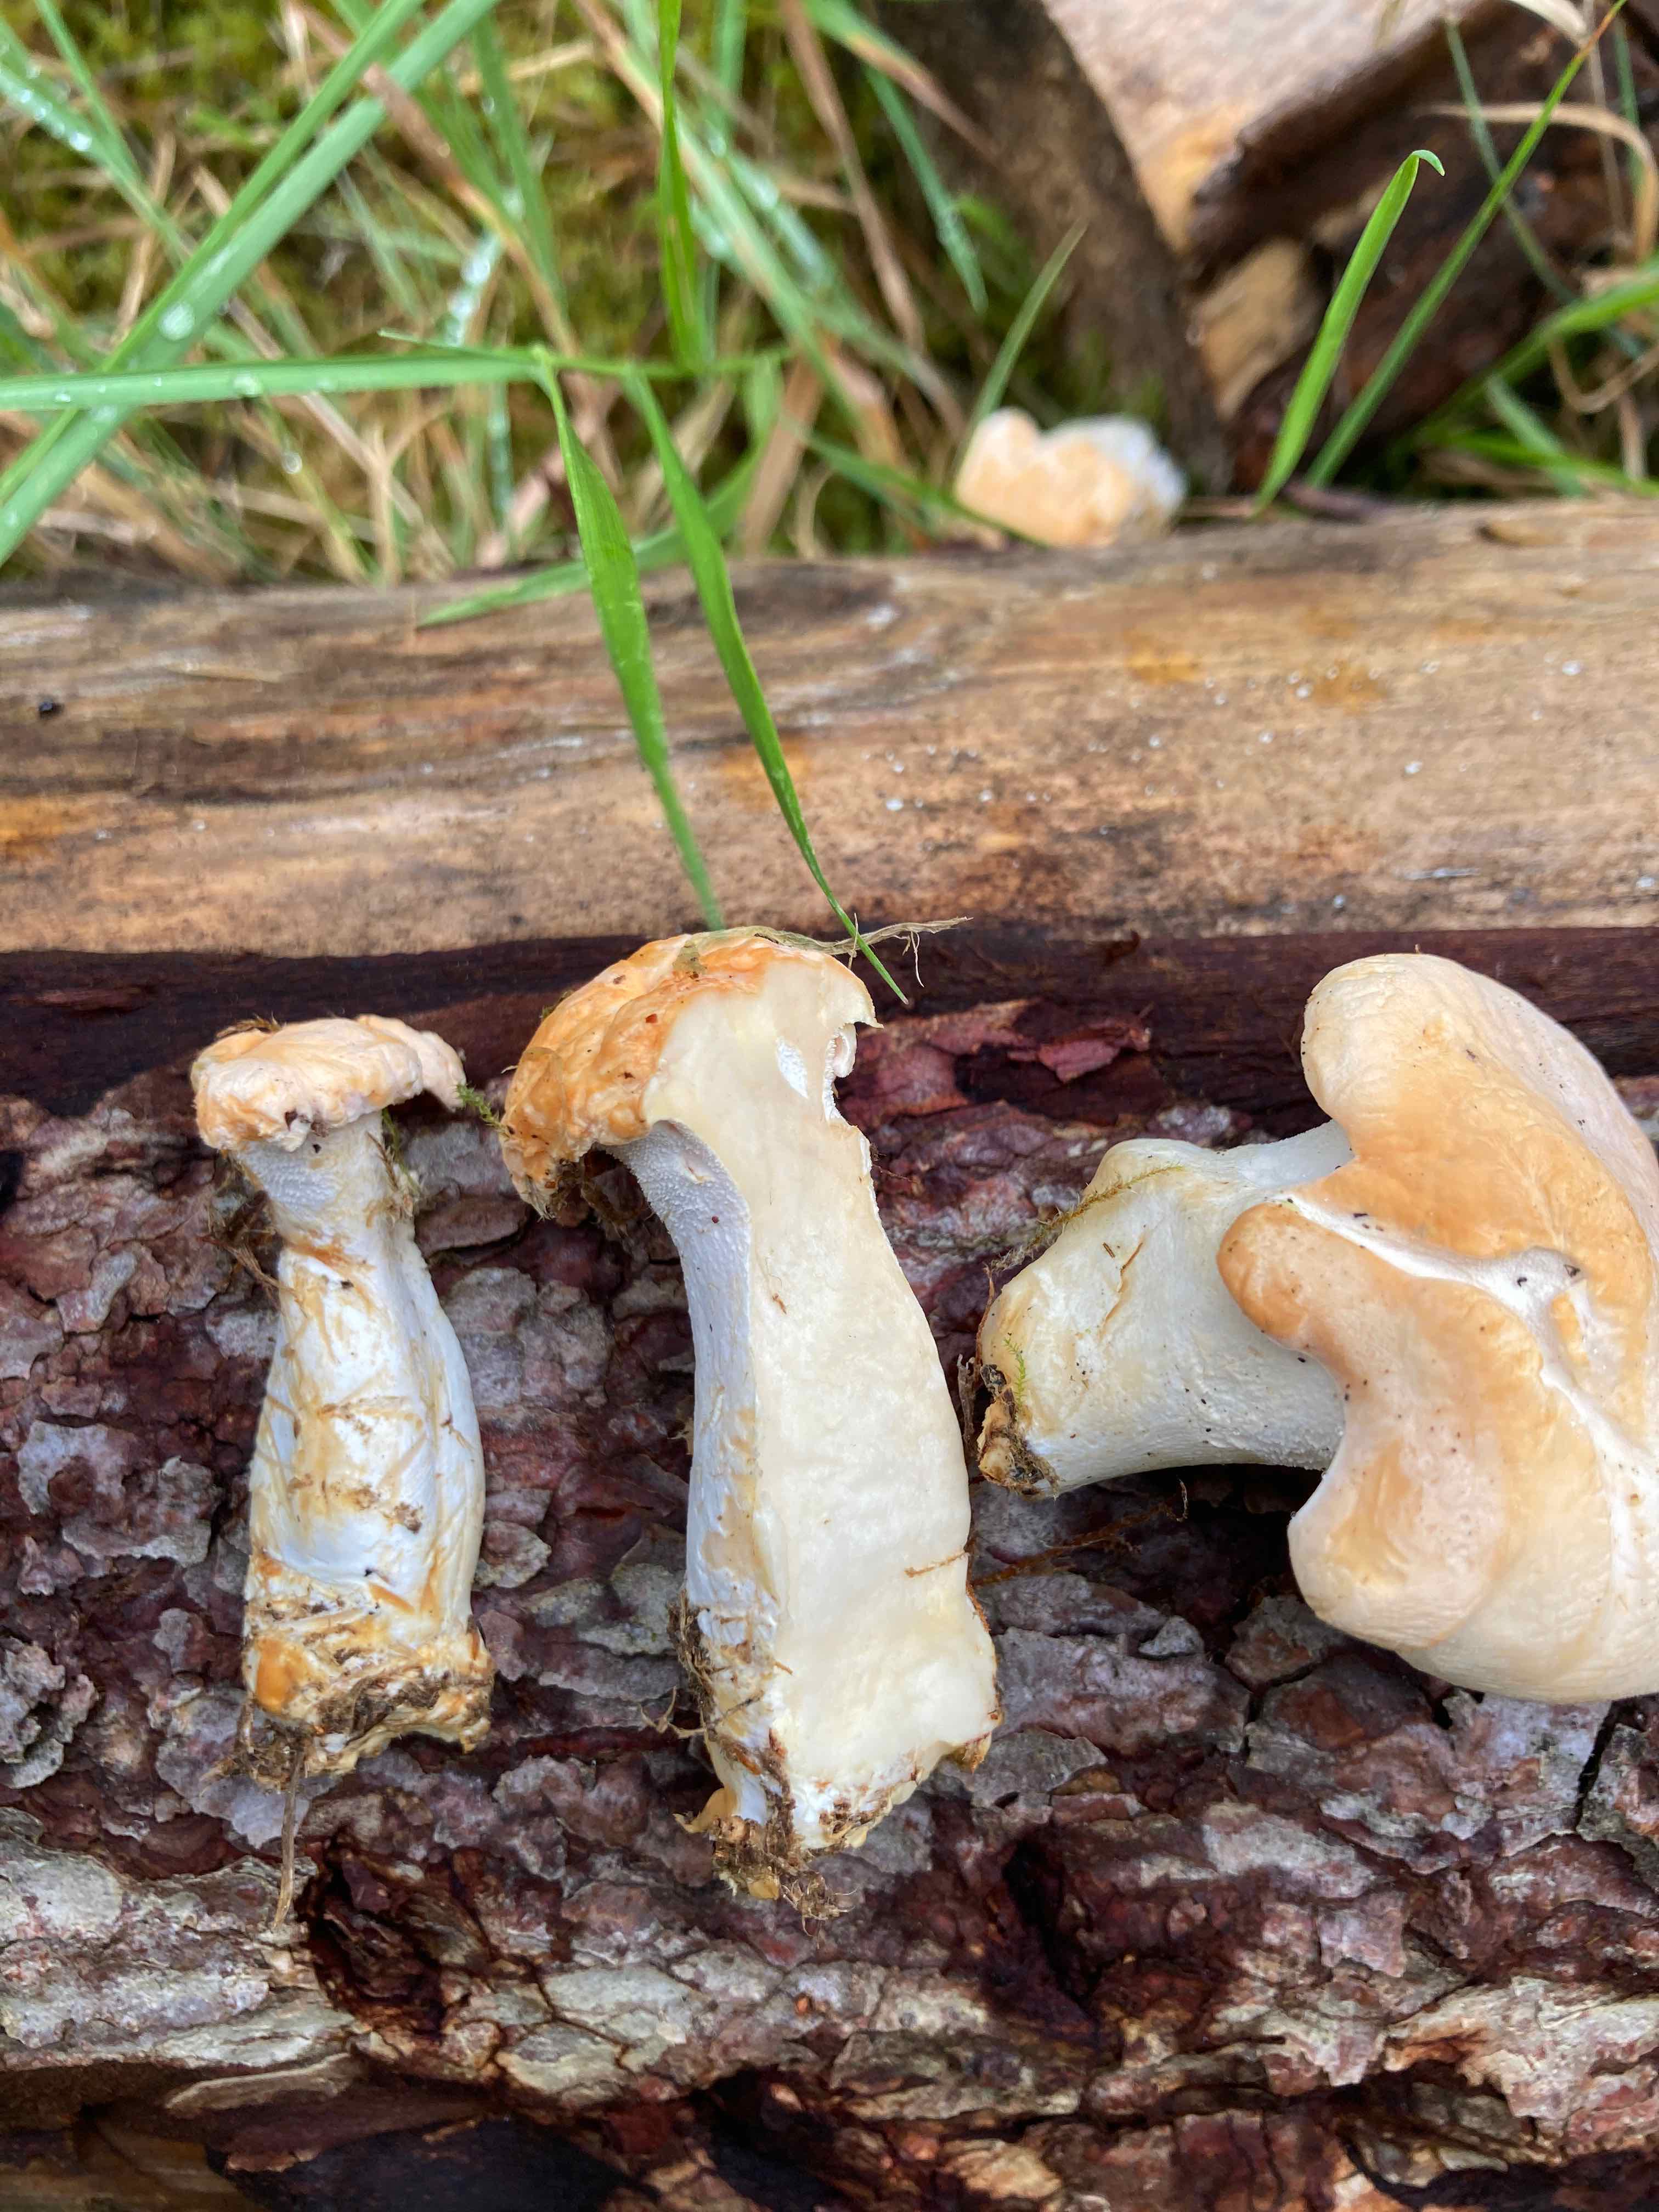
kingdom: Fungi
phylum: Basidiomycota
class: Agaricomycetes
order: Cantharellales
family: Hydnaceae
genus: Hydnum
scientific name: Hydnum repandum
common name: almindelig pigsvamp
